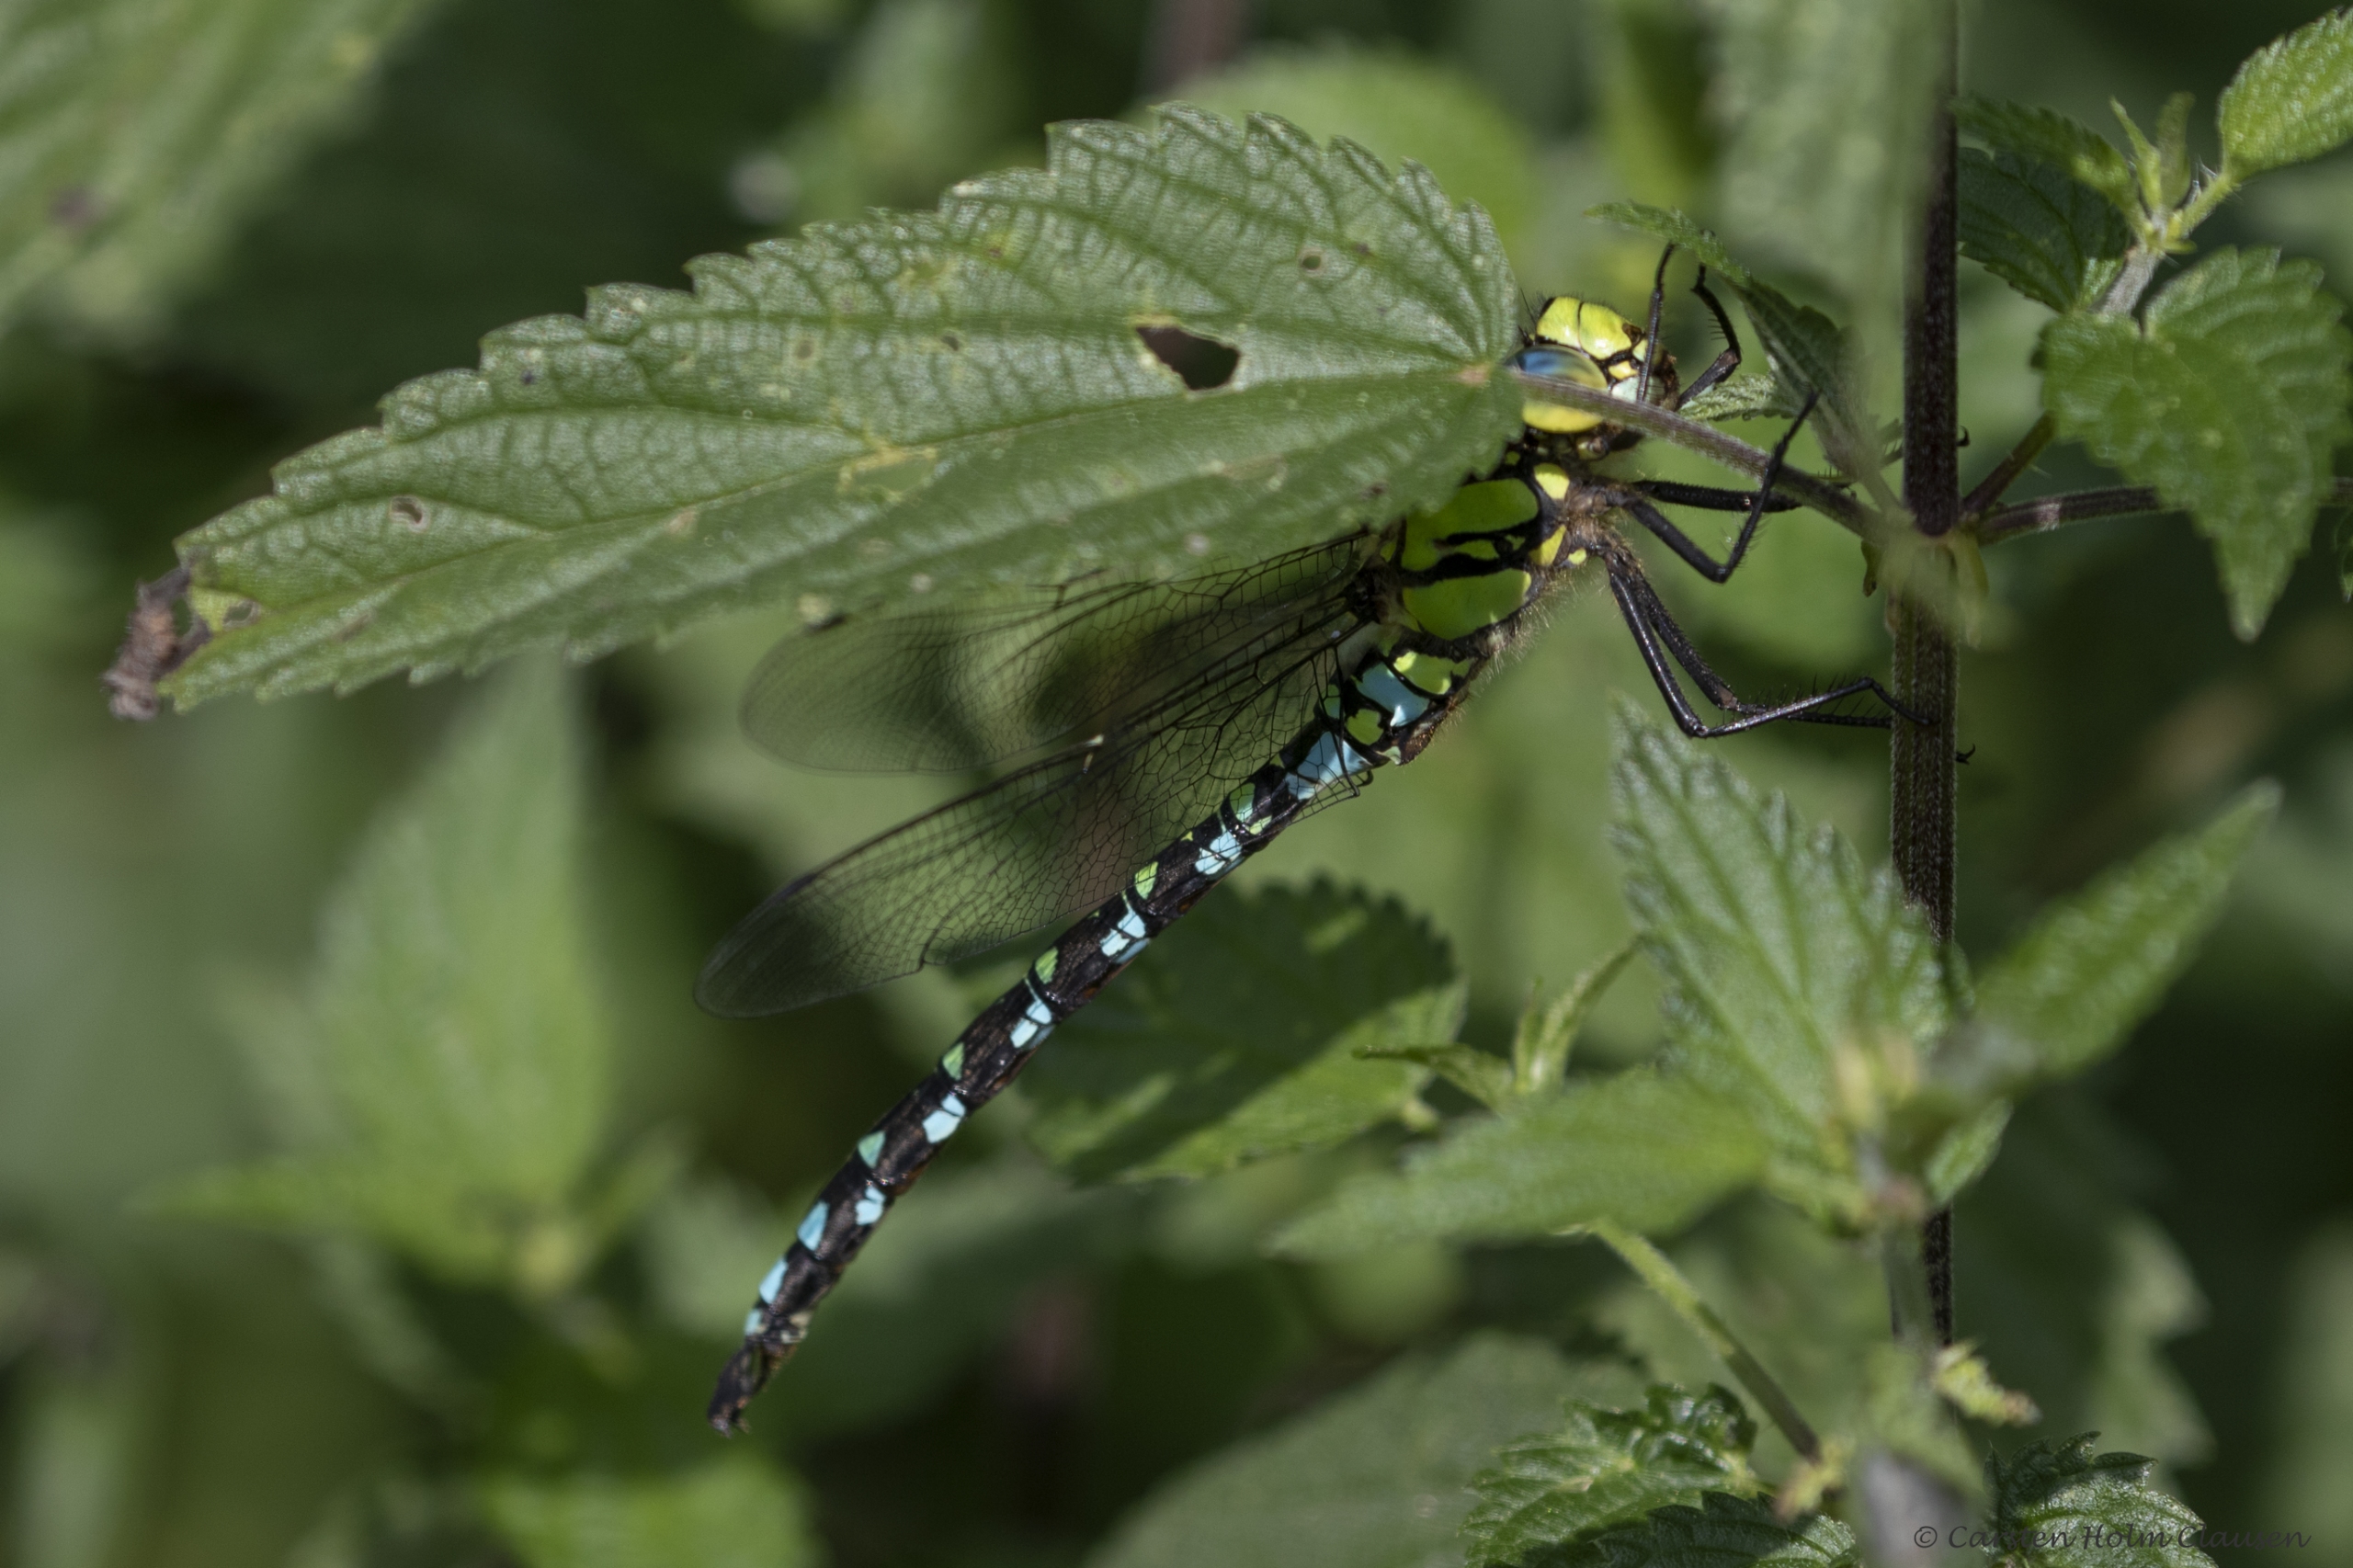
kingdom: Animalia
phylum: Arthropoda
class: Insecta
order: Odonata
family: Aeshnidae
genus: Aeshna
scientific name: Aeshna cyanea
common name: Blå mosaikguldsmed
